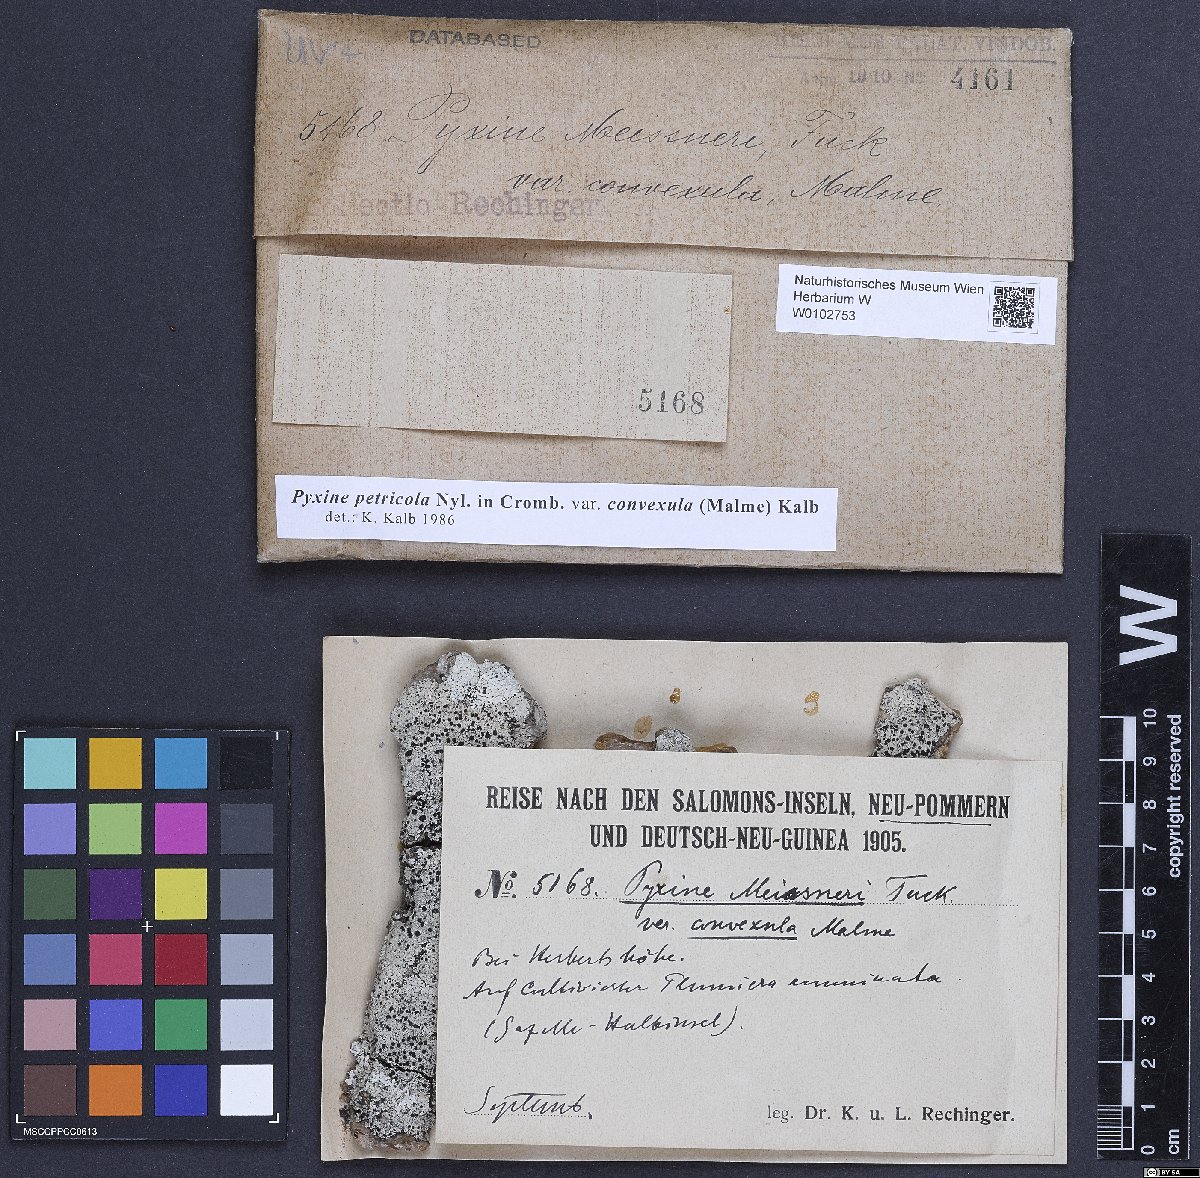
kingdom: Fungi
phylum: Ascomycota
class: Lecanoromycetes
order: Caliciales
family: Caliciaceae
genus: Pyxine
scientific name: Pyxine petricola
